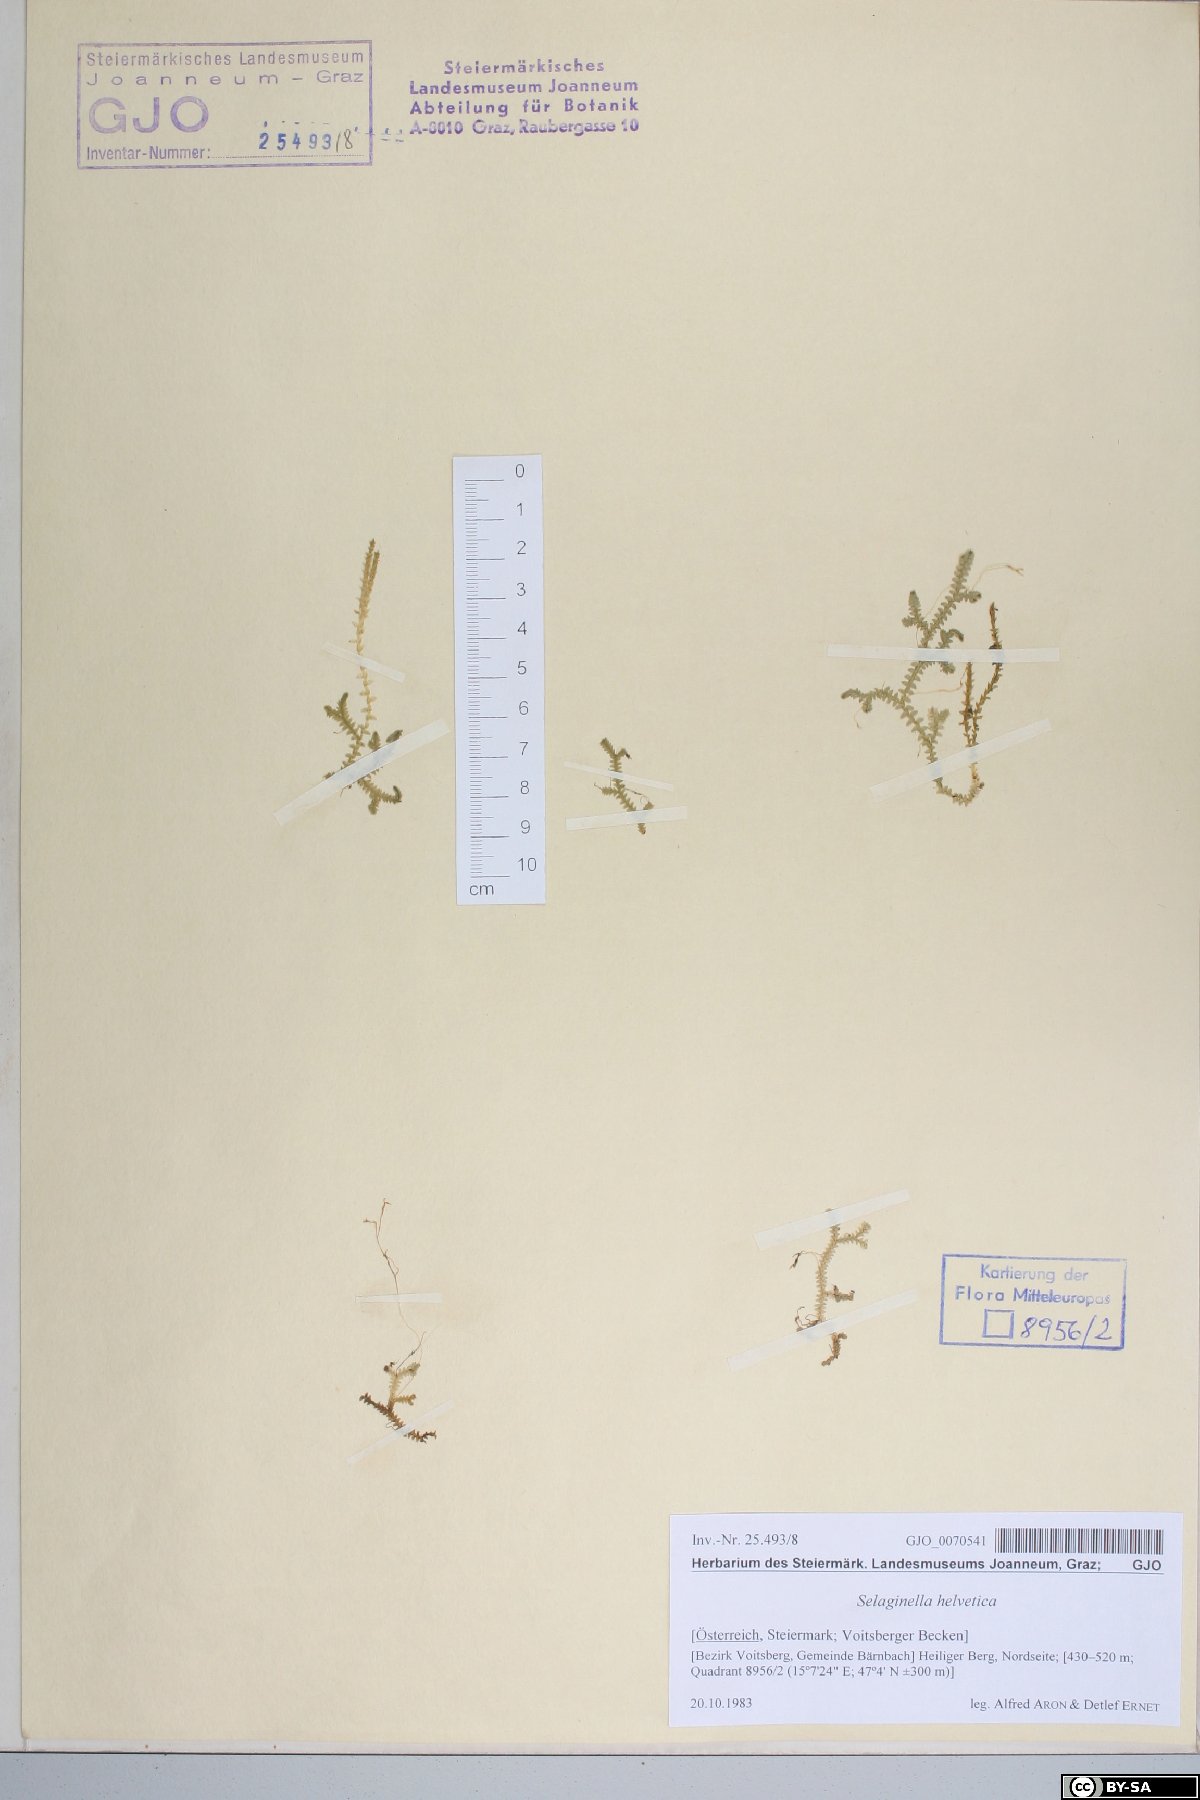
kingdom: Plantae
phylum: Tracheophyta
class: Lycopodiopsida
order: Selaginellales
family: Selaginellaceae
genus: Selaginella
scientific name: Selaginella helvetica
